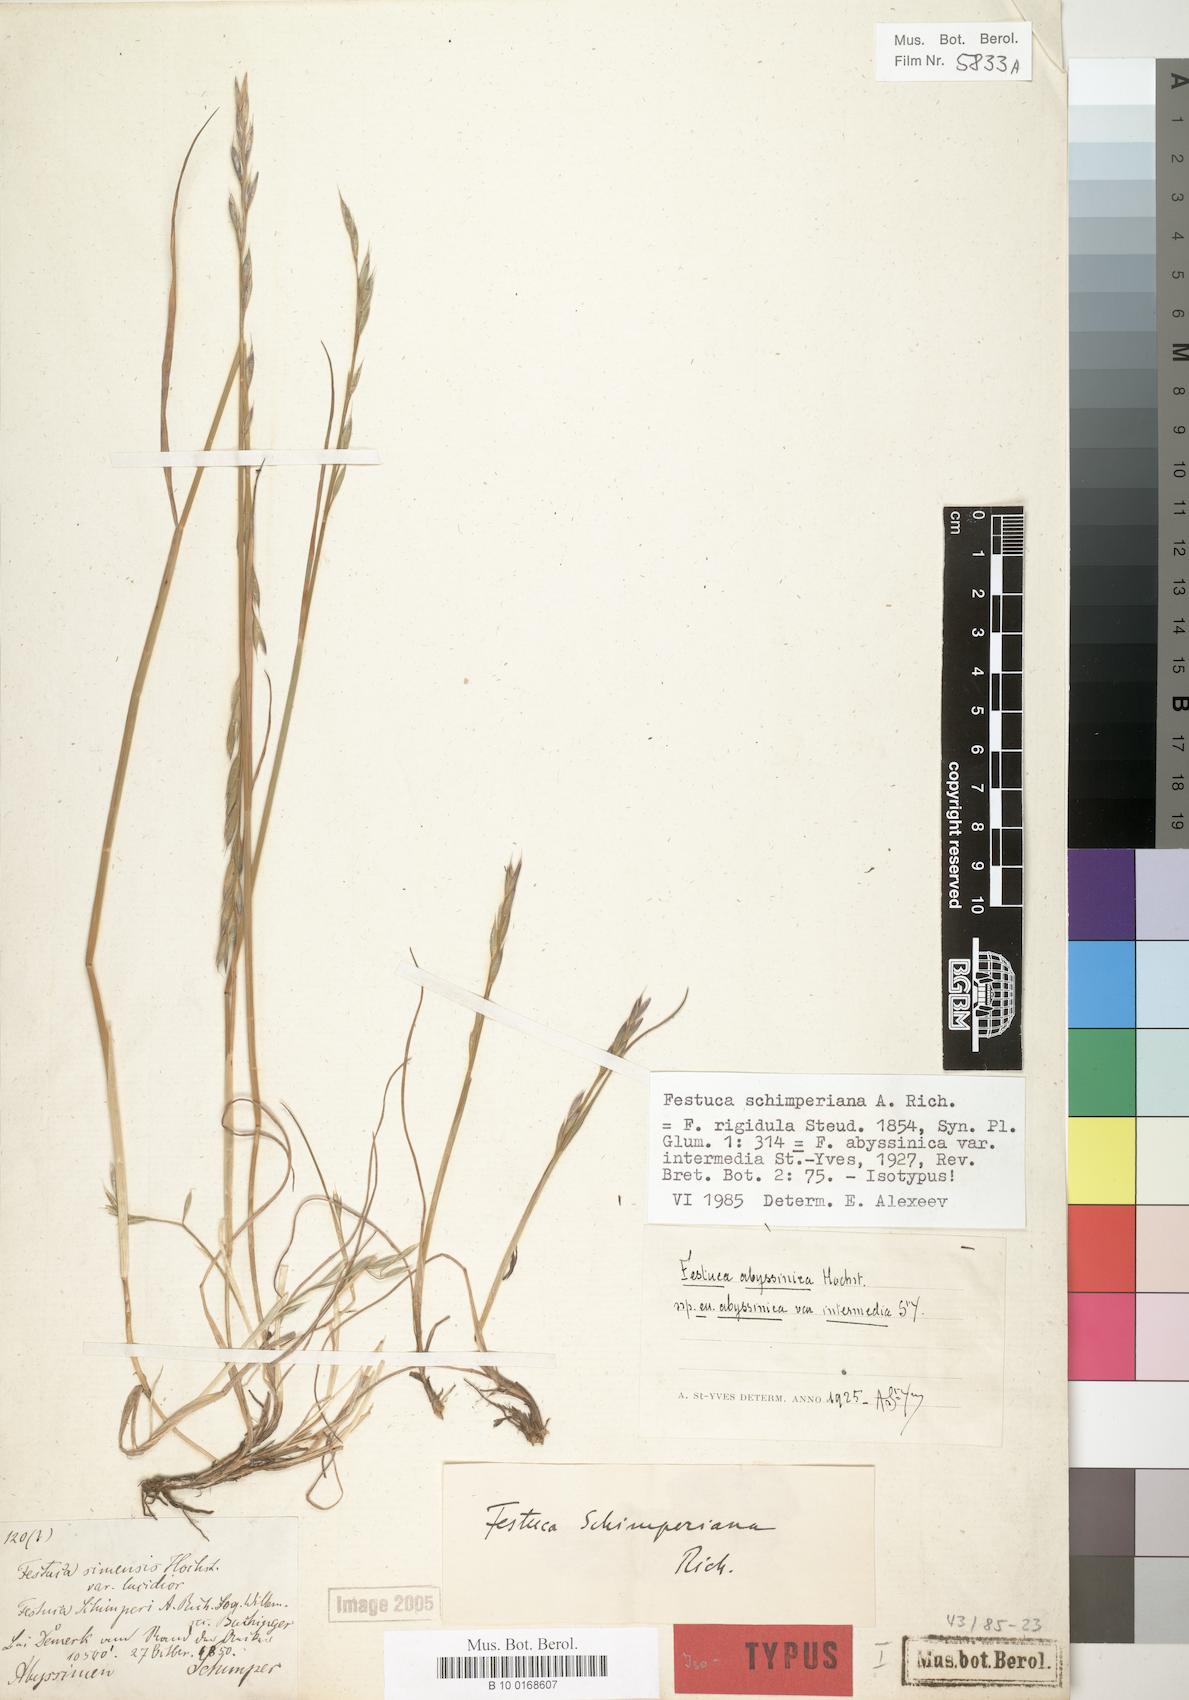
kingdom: Plantae
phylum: Tracheophyta
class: Liliopsida
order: Poales
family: Poaceae
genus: Festuca
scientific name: Festuca abyssinica
